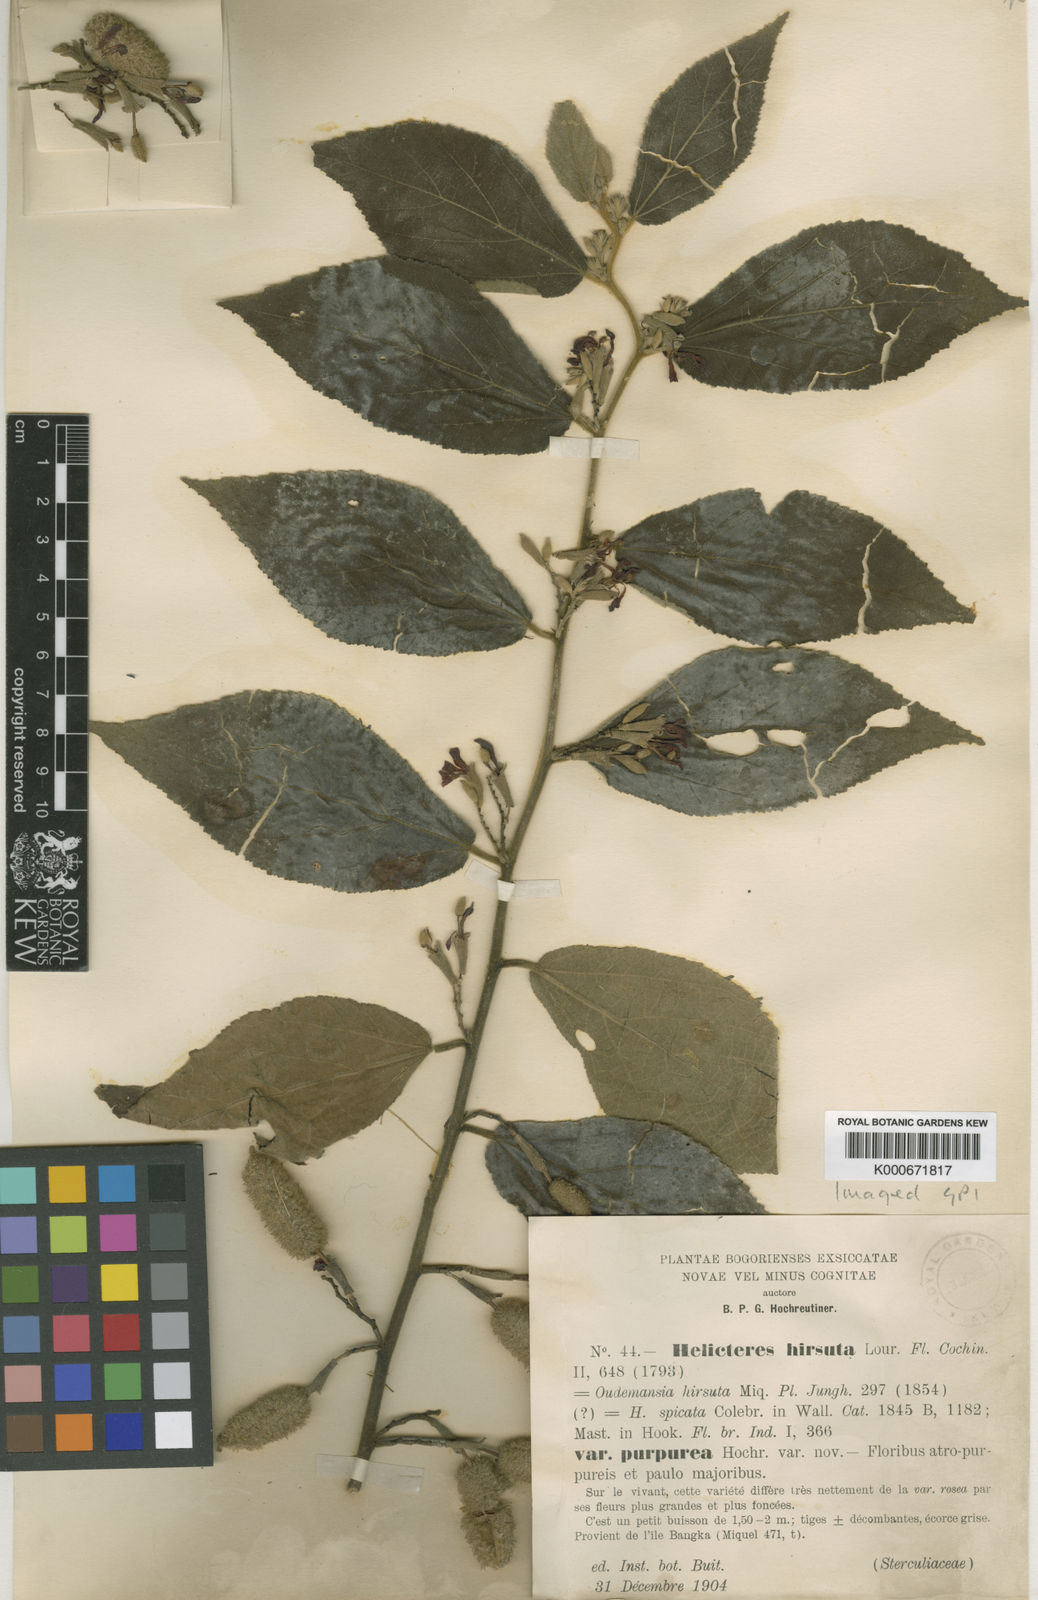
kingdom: Plantae
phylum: Tracheophyta
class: Magnoliopsida
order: Malvales
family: Malvaceae
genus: Helicteres
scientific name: Helicteres hirsuta
